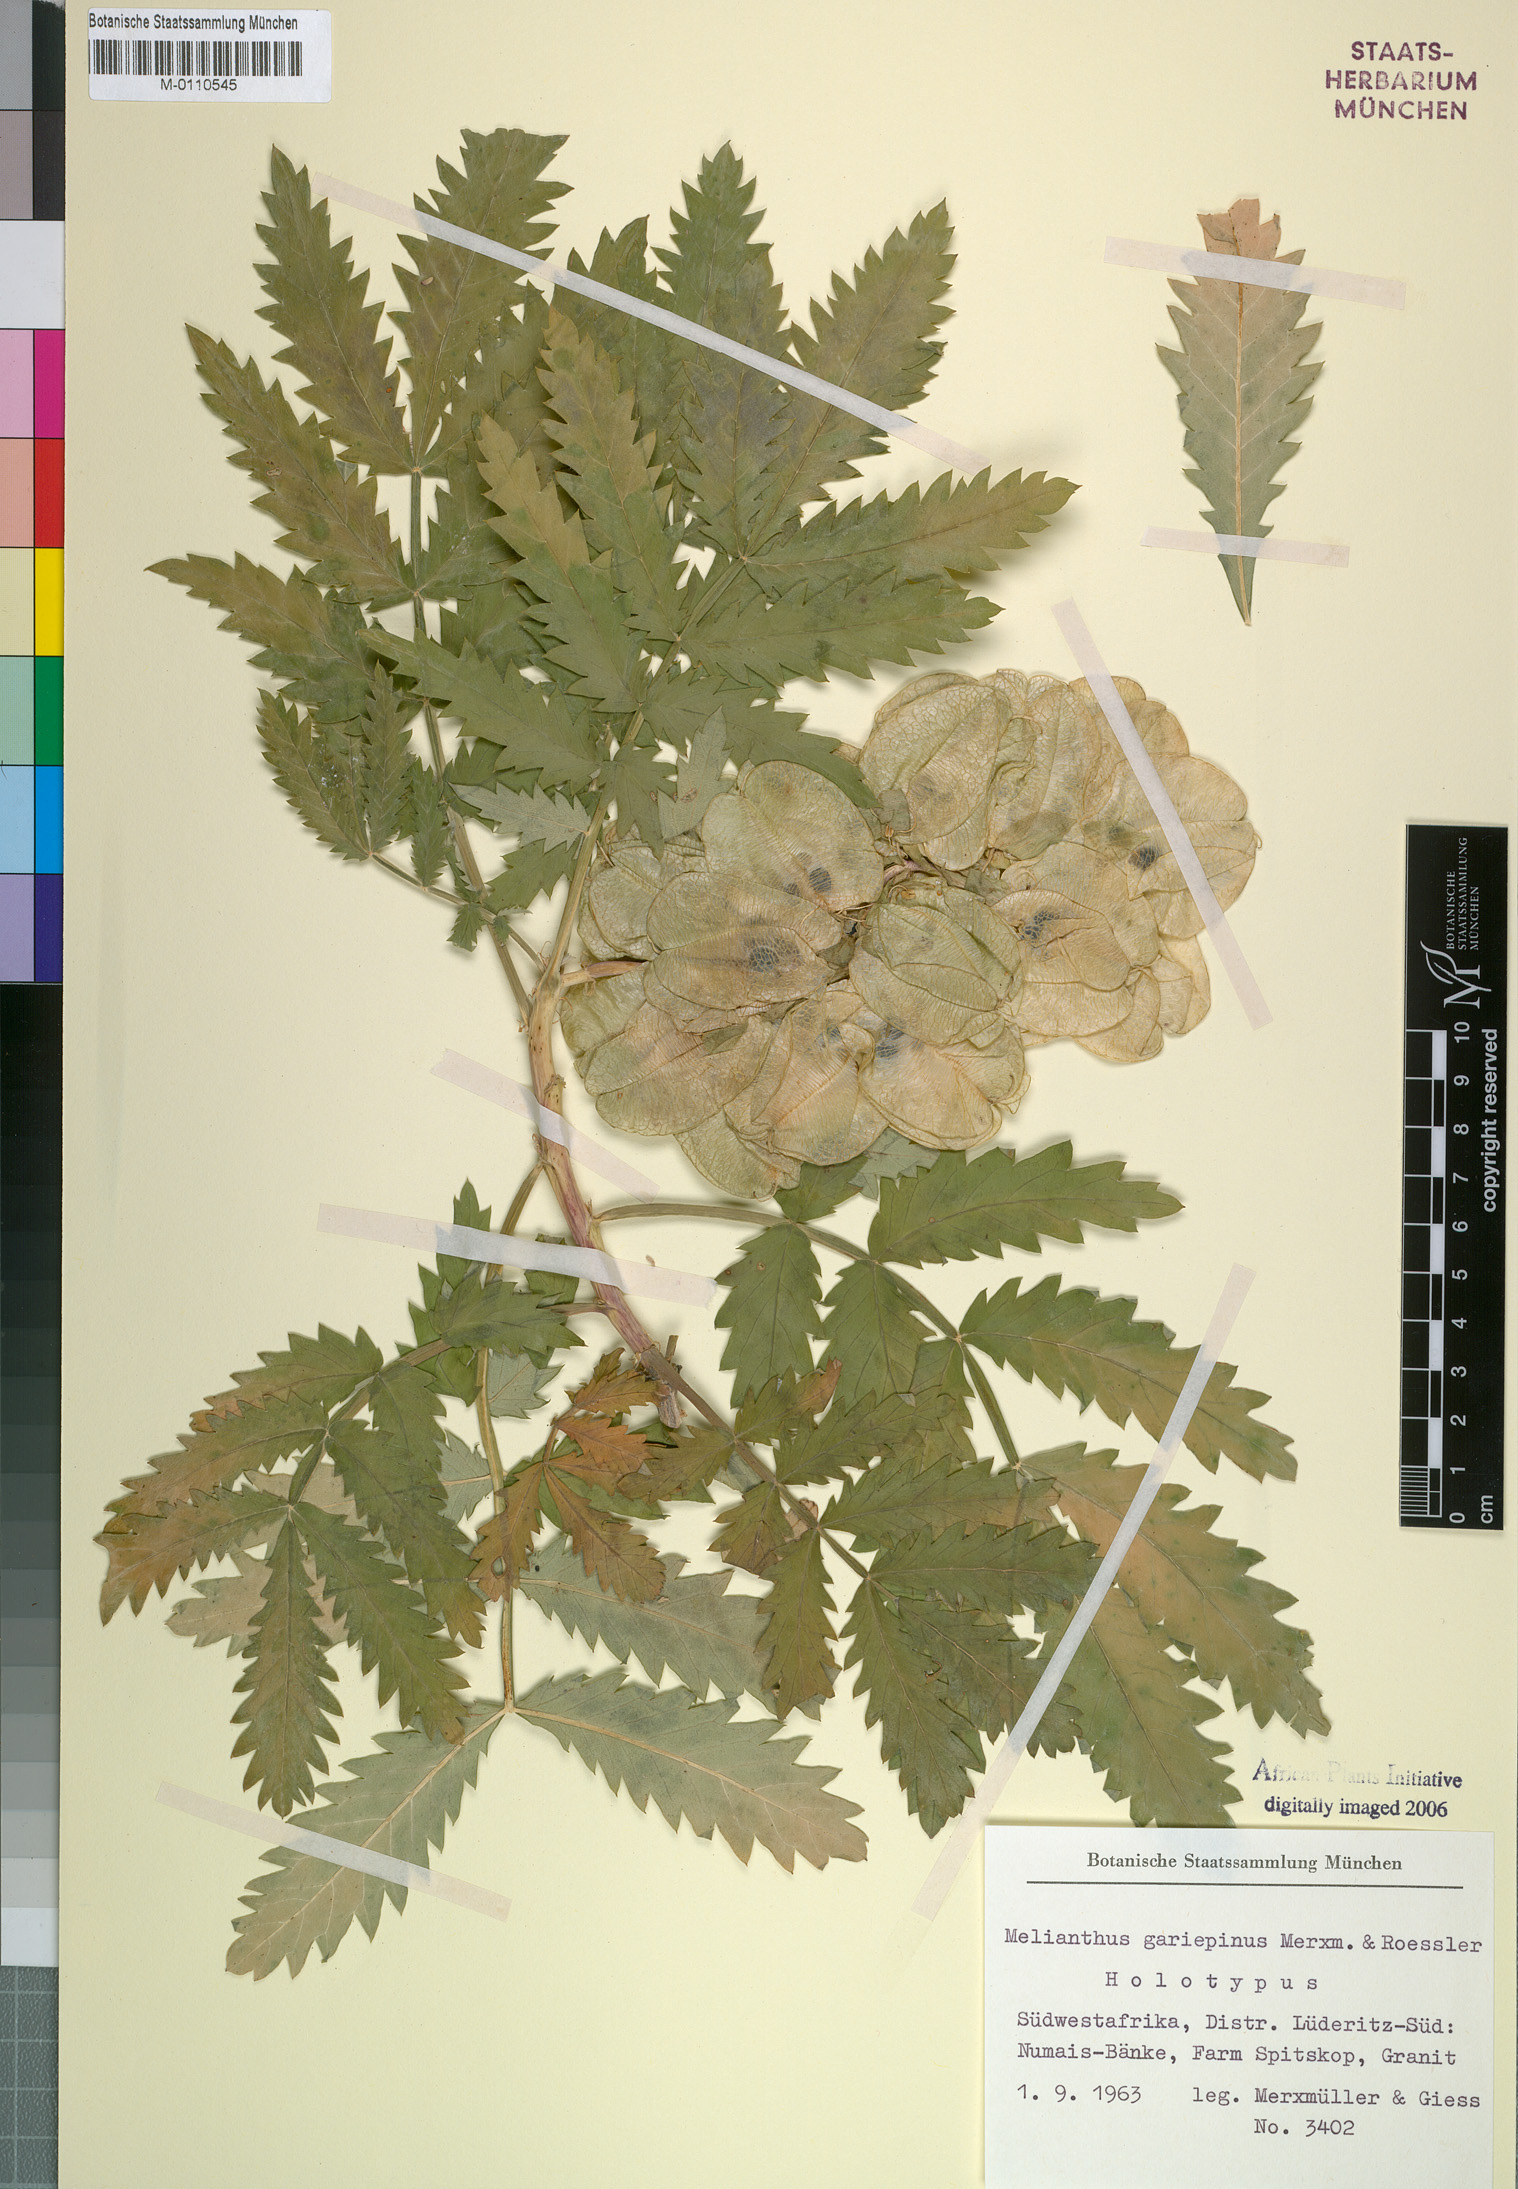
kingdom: Plantae
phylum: Tracheophyta
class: Magnoliopsida
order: Geraniales
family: Melianthaceae
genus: Melianthus
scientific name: Melianthus pectinatus
